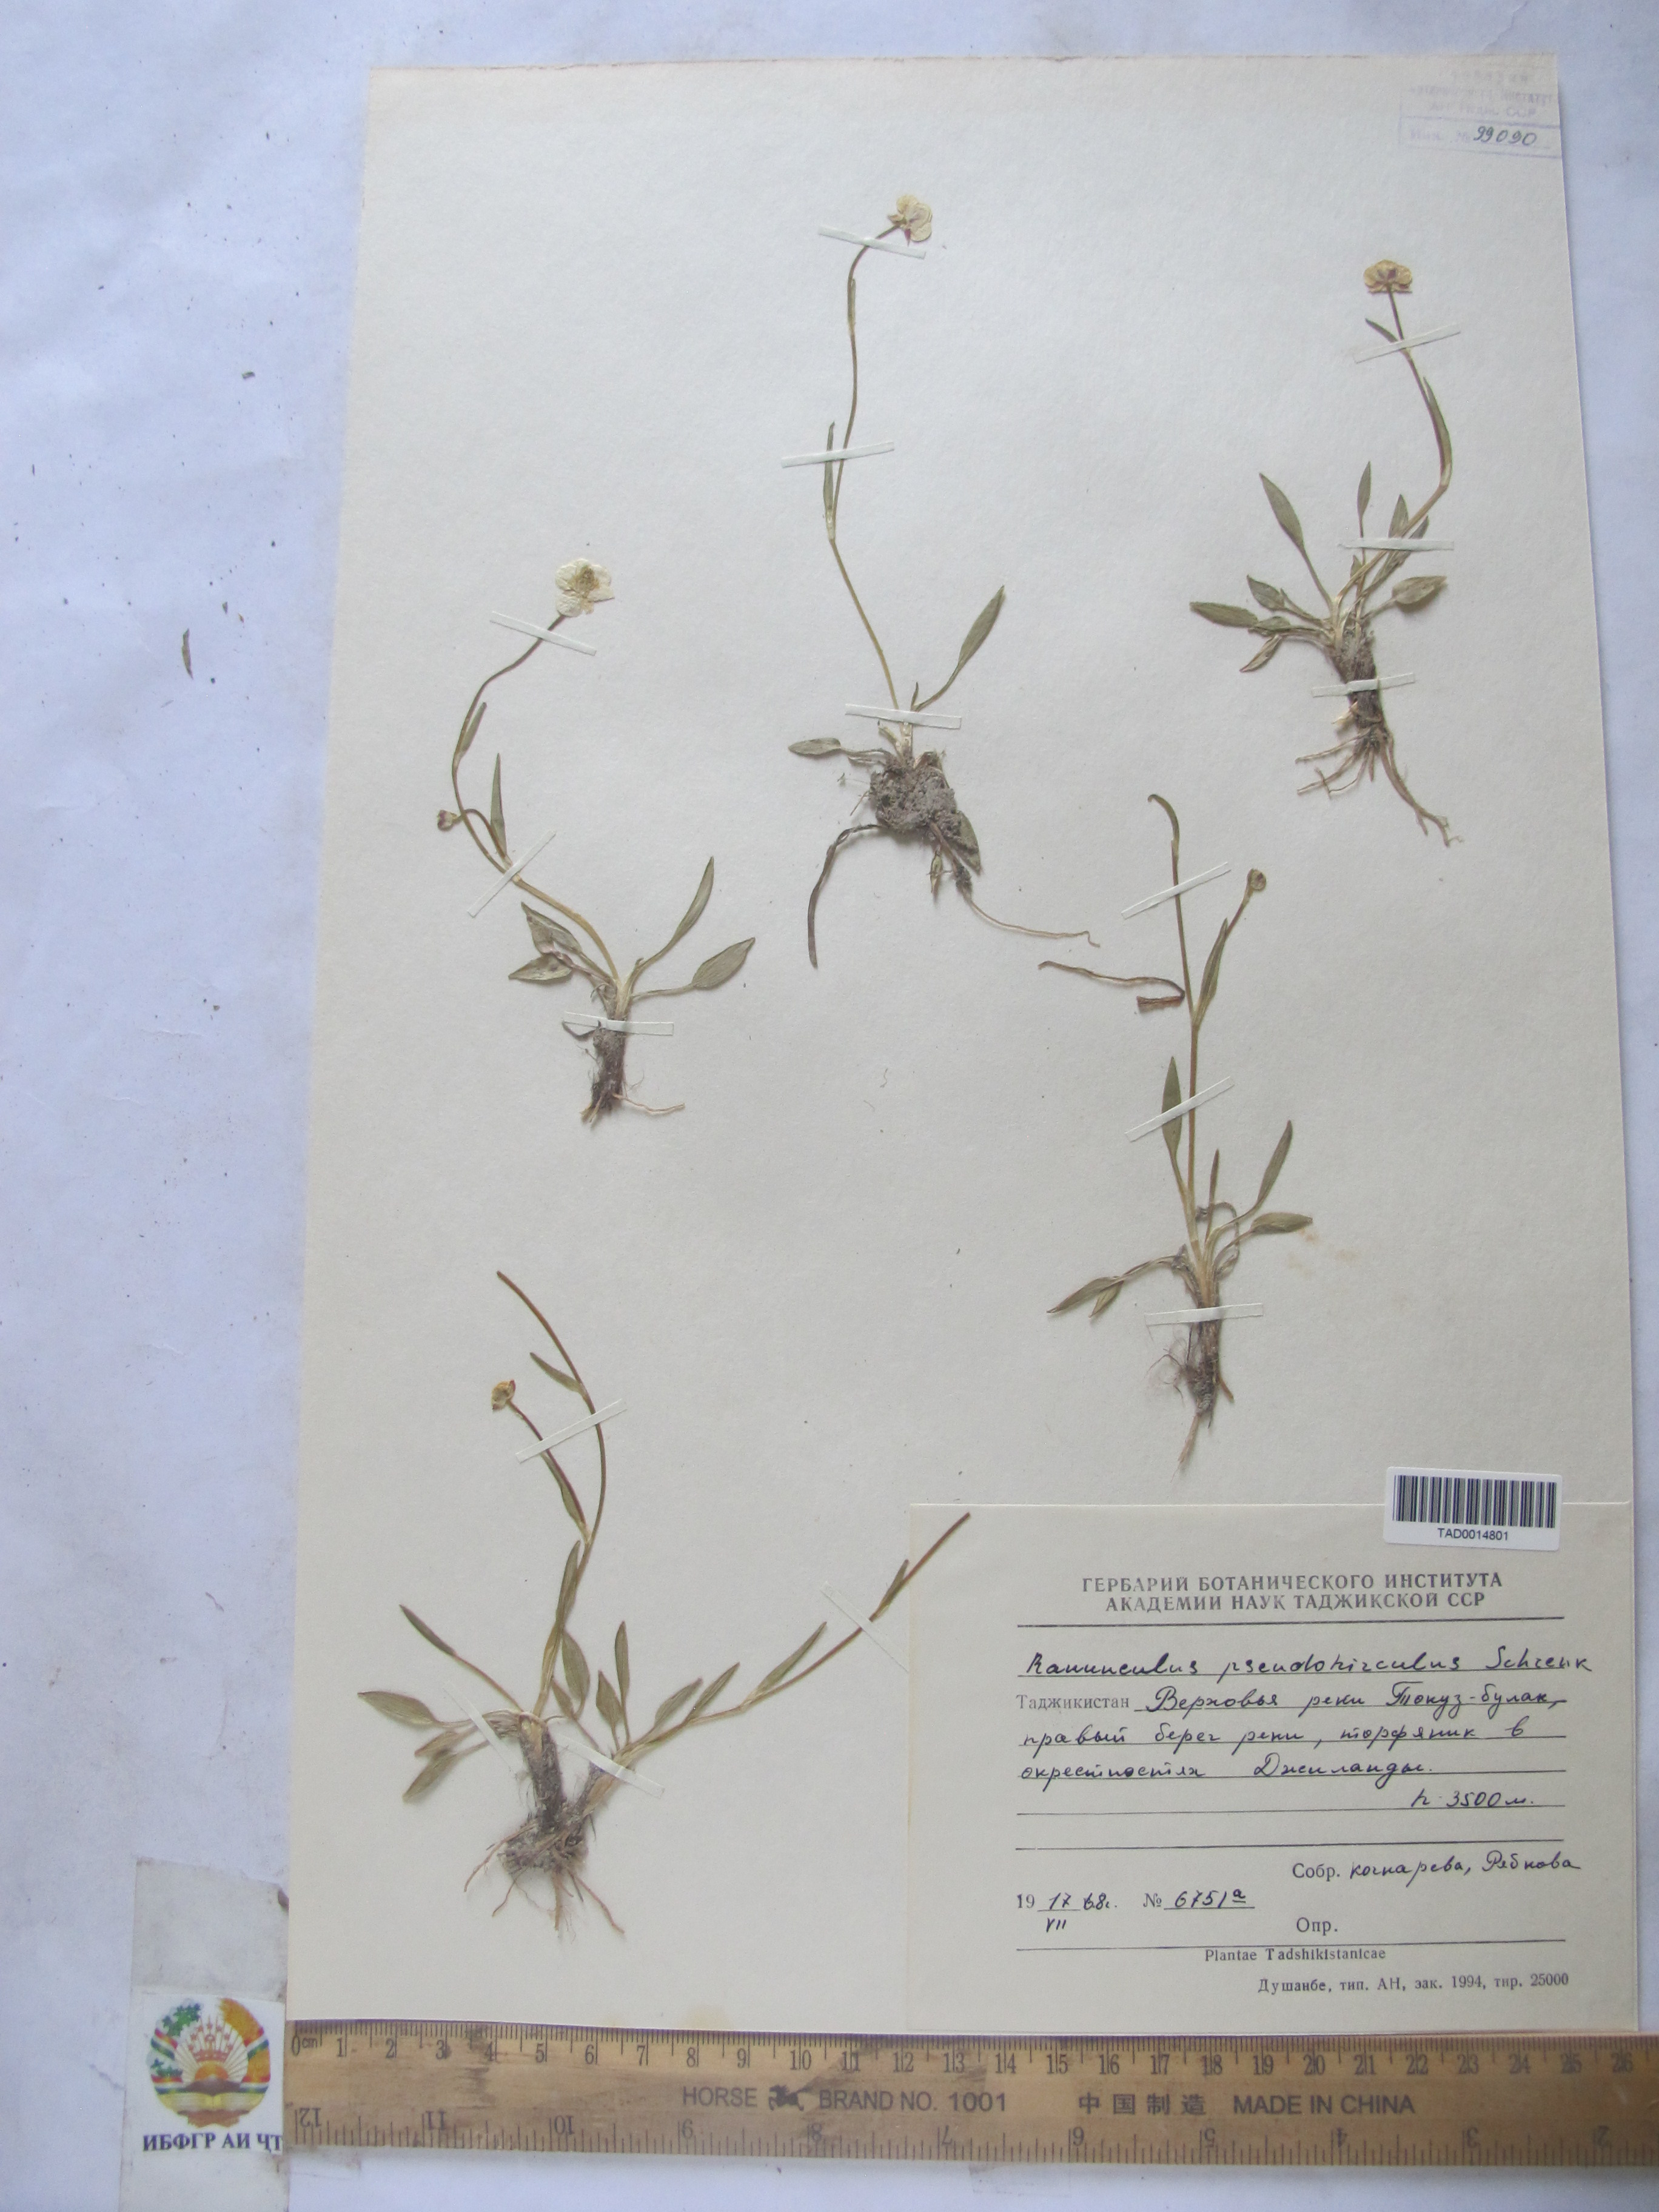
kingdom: Plantae
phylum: Tracheophyta
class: Magnoliopsida
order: Ranunculales
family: Ranunculaceae
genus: Ranunculus
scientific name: Ranunculus pseudohirculus
